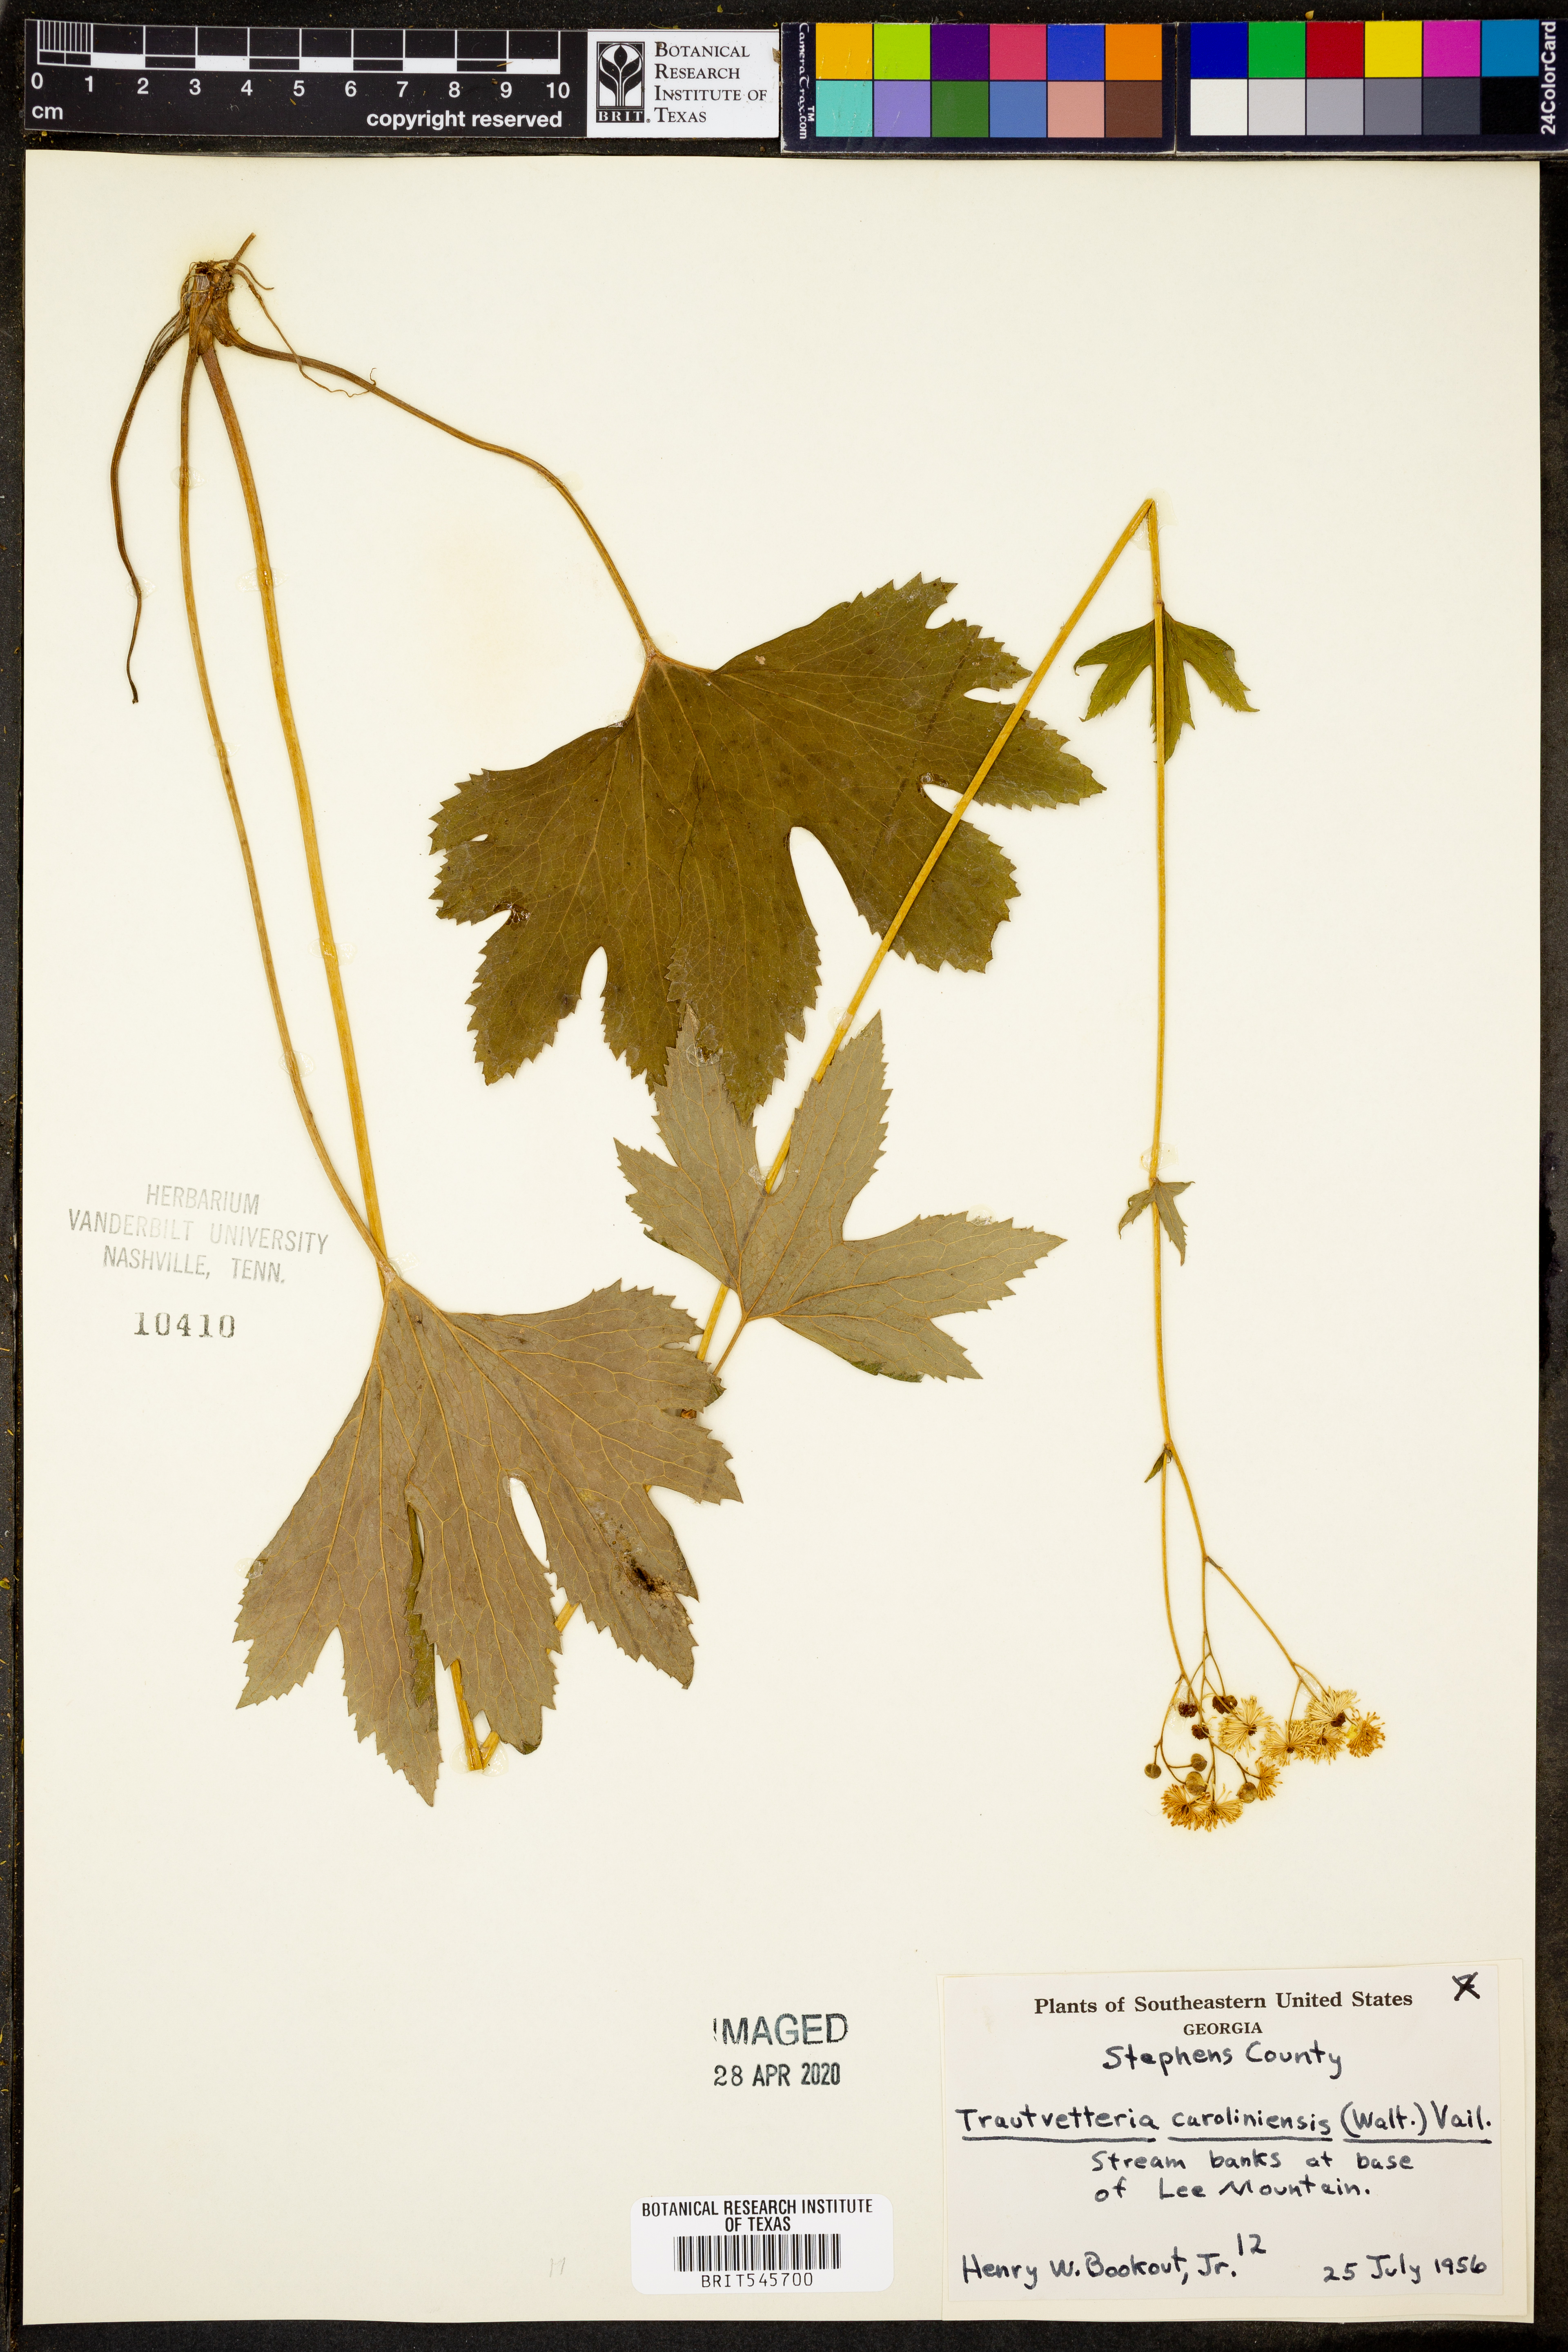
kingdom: Plantae
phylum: Tracheophyta
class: Magnoliopsida
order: Ranunculales
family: Ranunculaceae
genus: Trautvetteria
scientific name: Trautvetteria carolinensis
